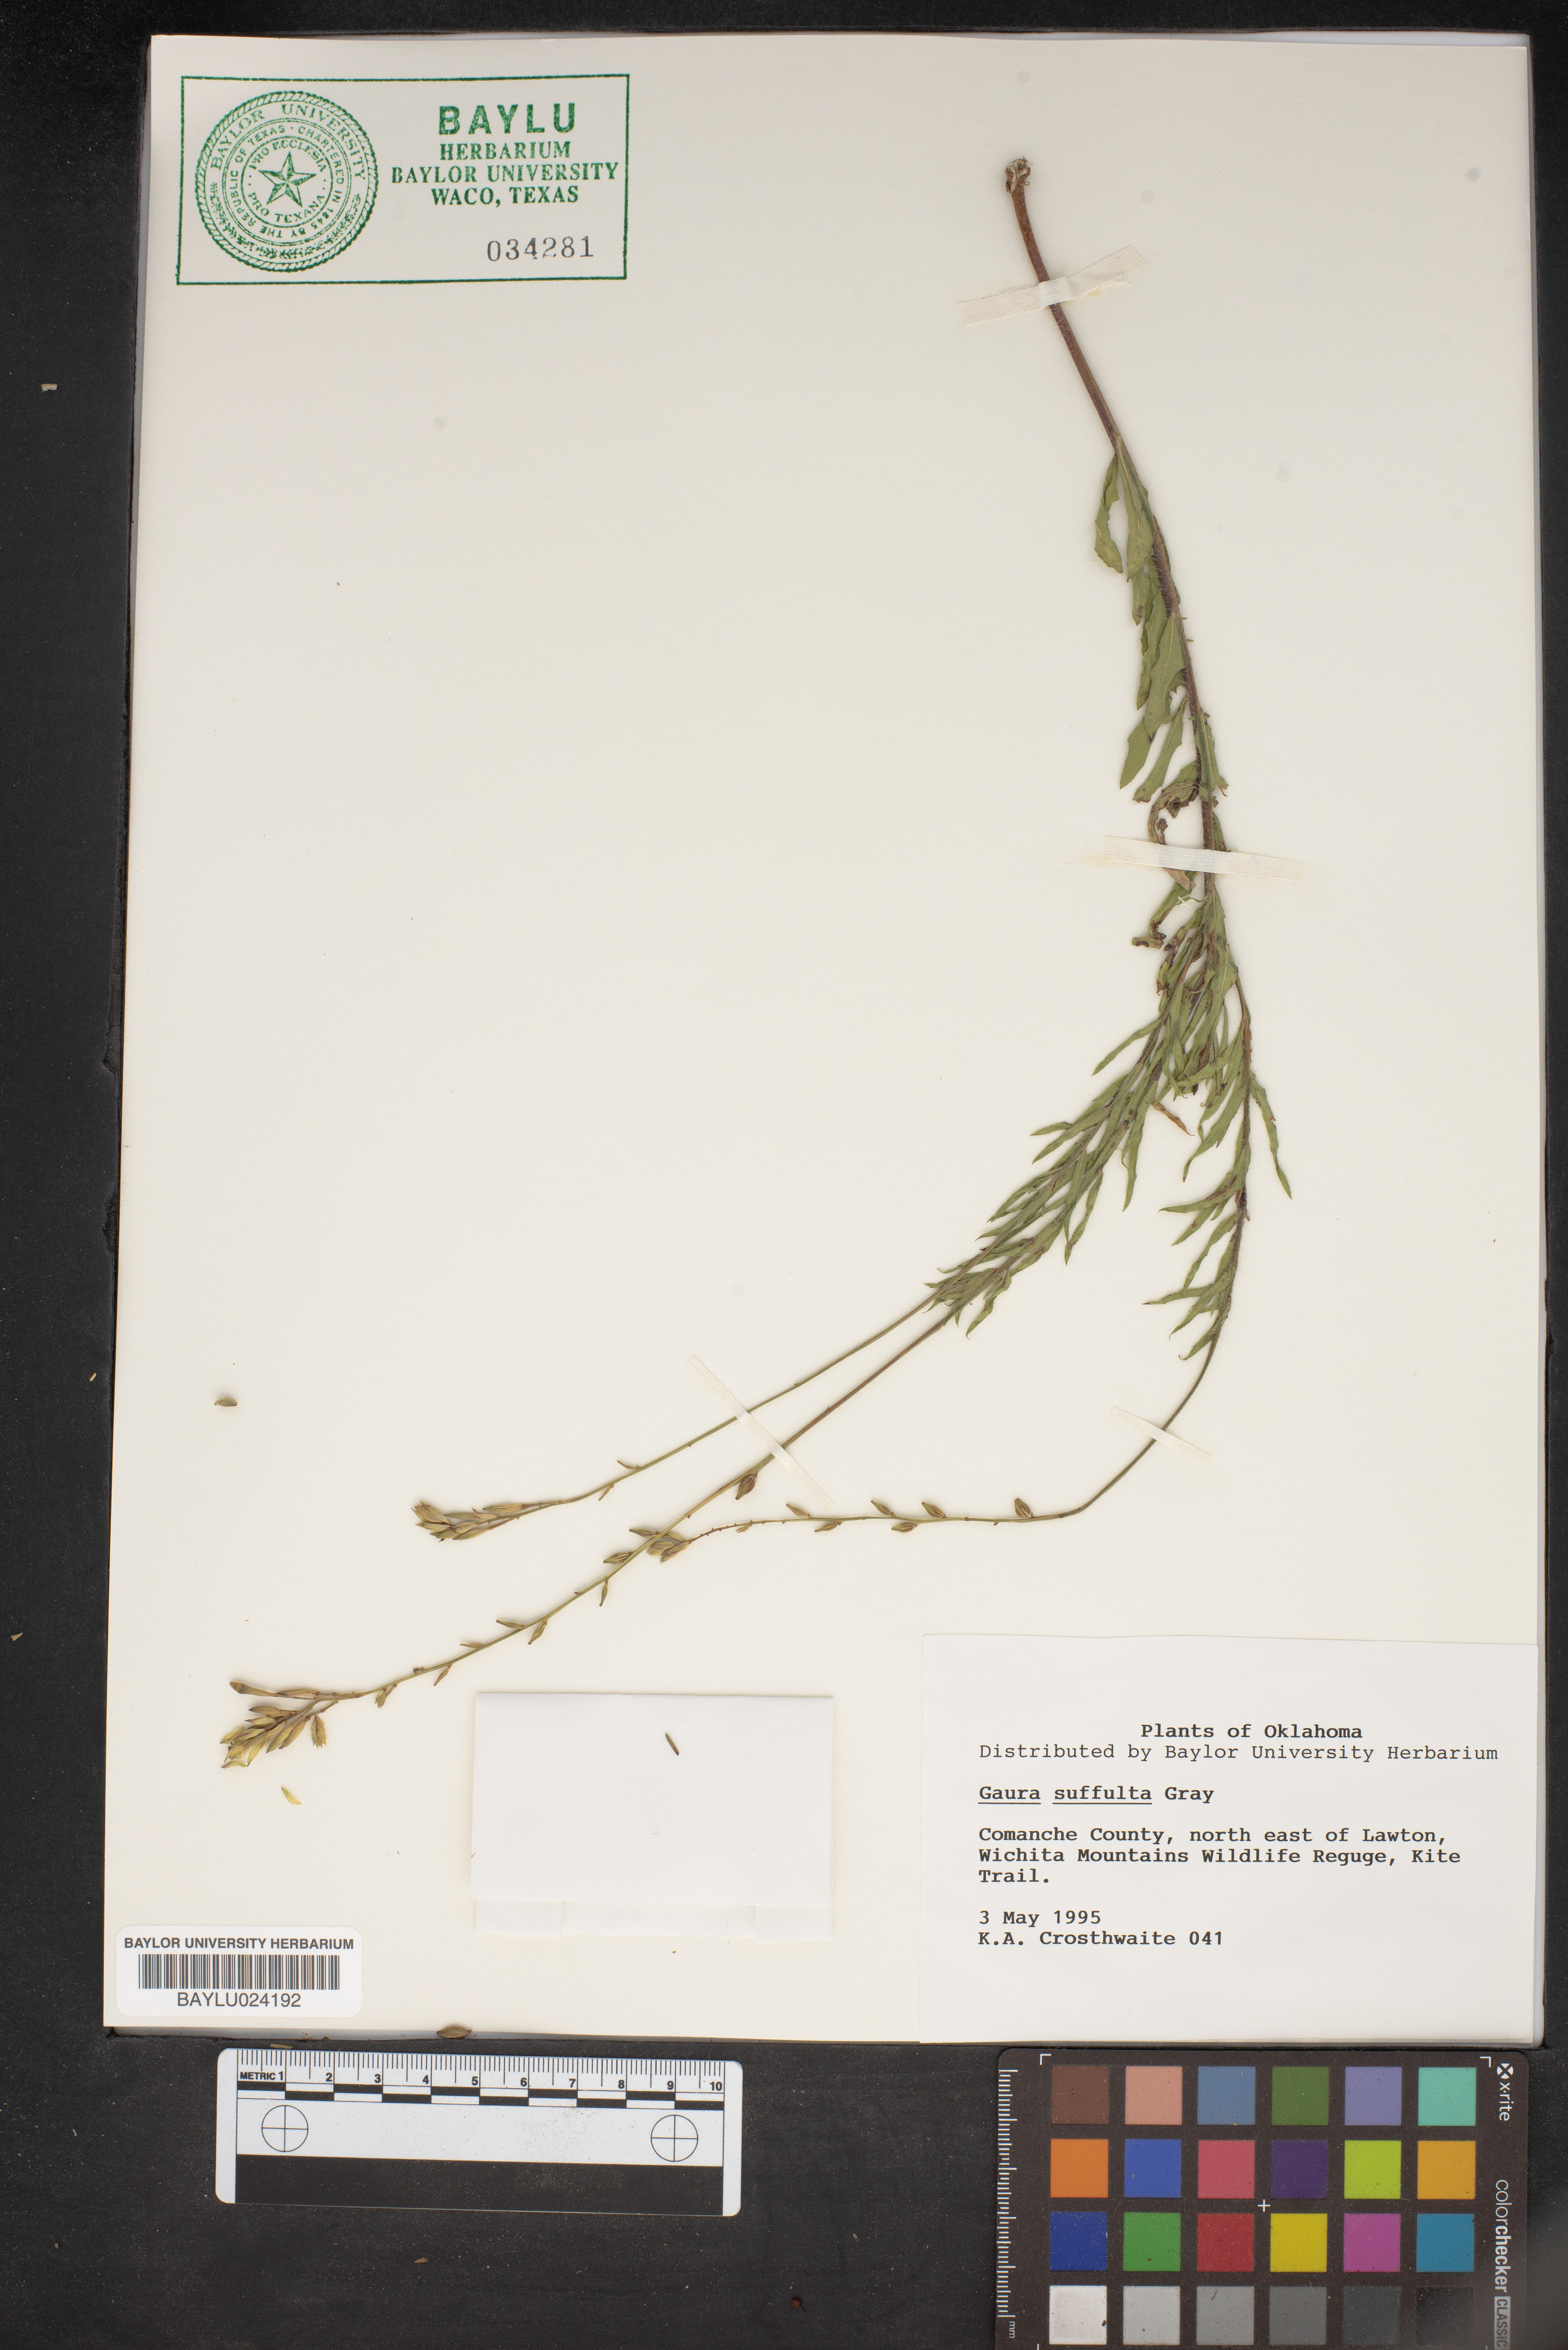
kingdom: Plantae
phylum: Tracheophyta
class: Magnoliopsida
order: Myrtales
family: Onagraceae
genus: Oenothera
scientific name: Oenothera Gaura suffulta
